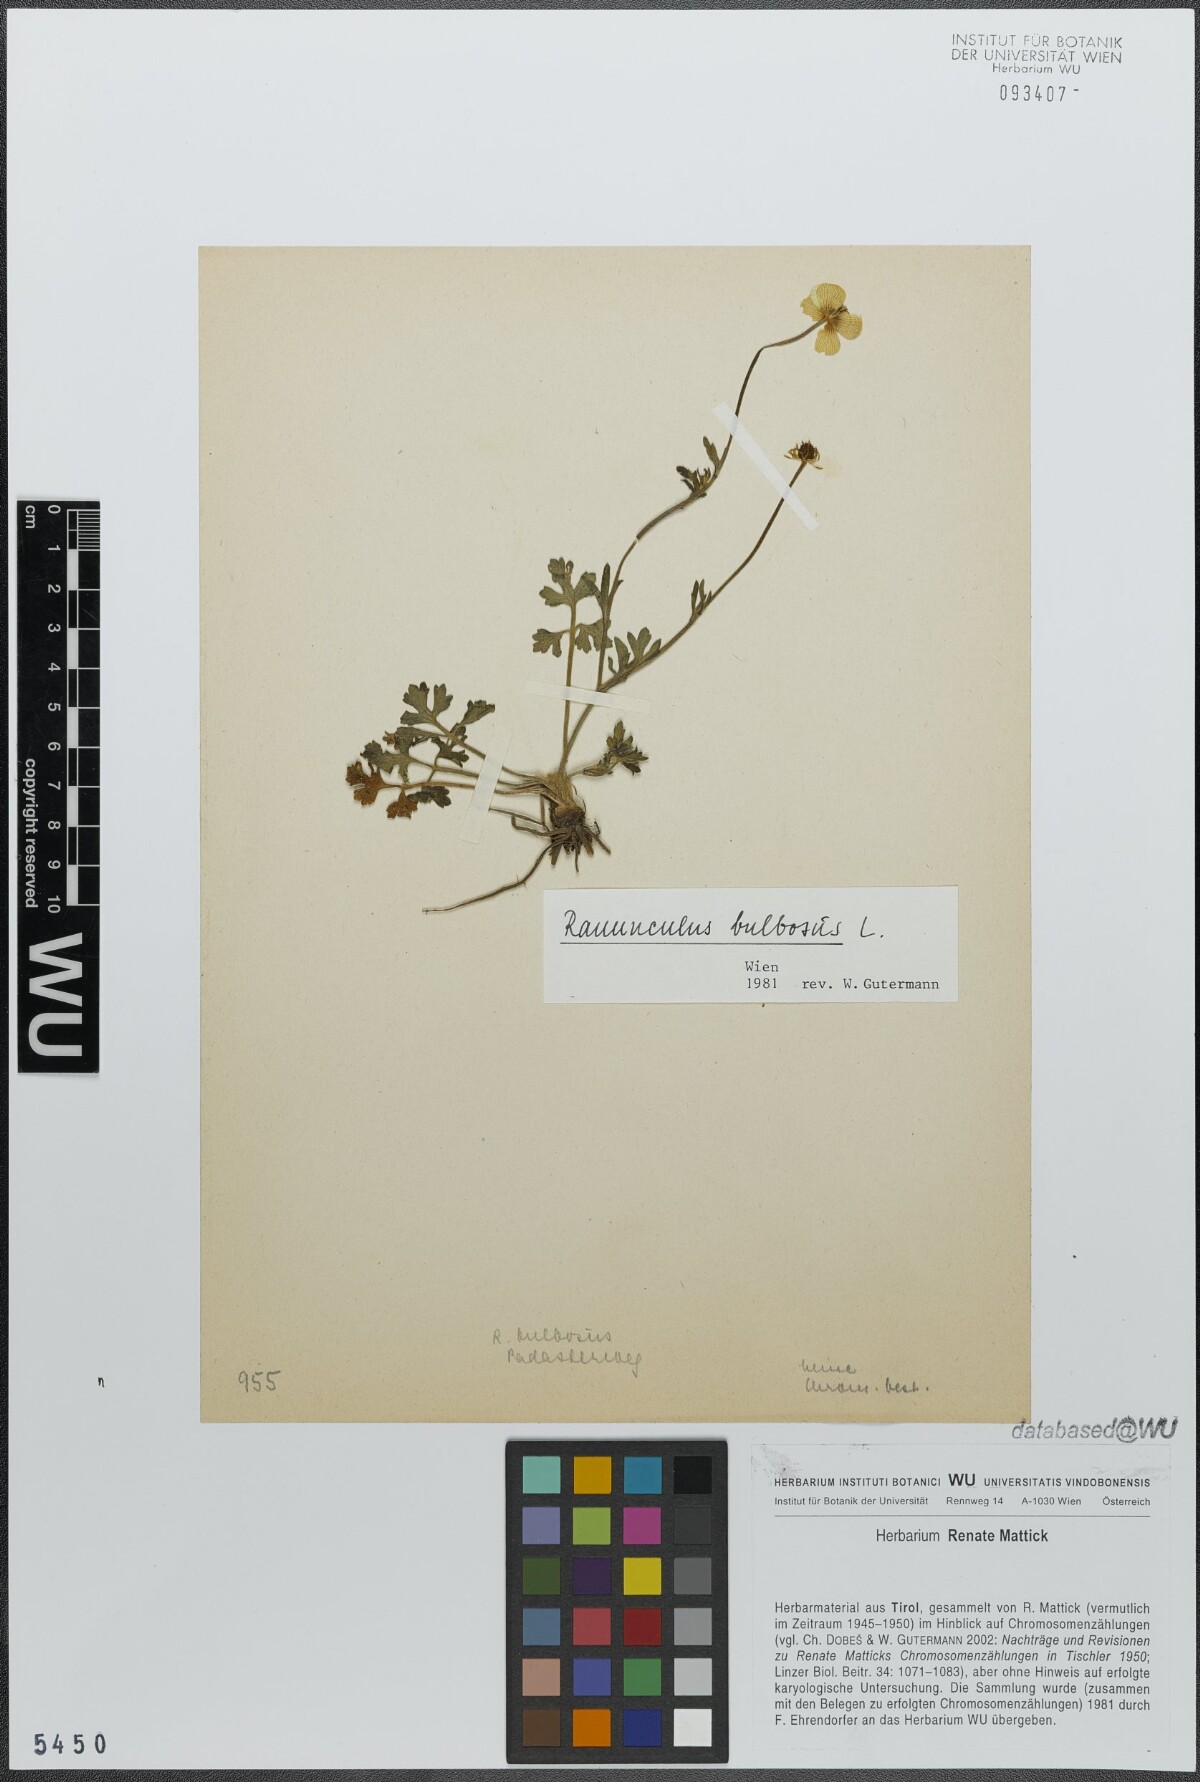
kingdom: Plantae
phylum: Tracheophyta
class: Magnoliopsida
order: Ranunculales
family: Ranunculaceae
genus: Ranunculus
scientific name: Ranunculus bulbosus
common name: Bulbous buttercup
